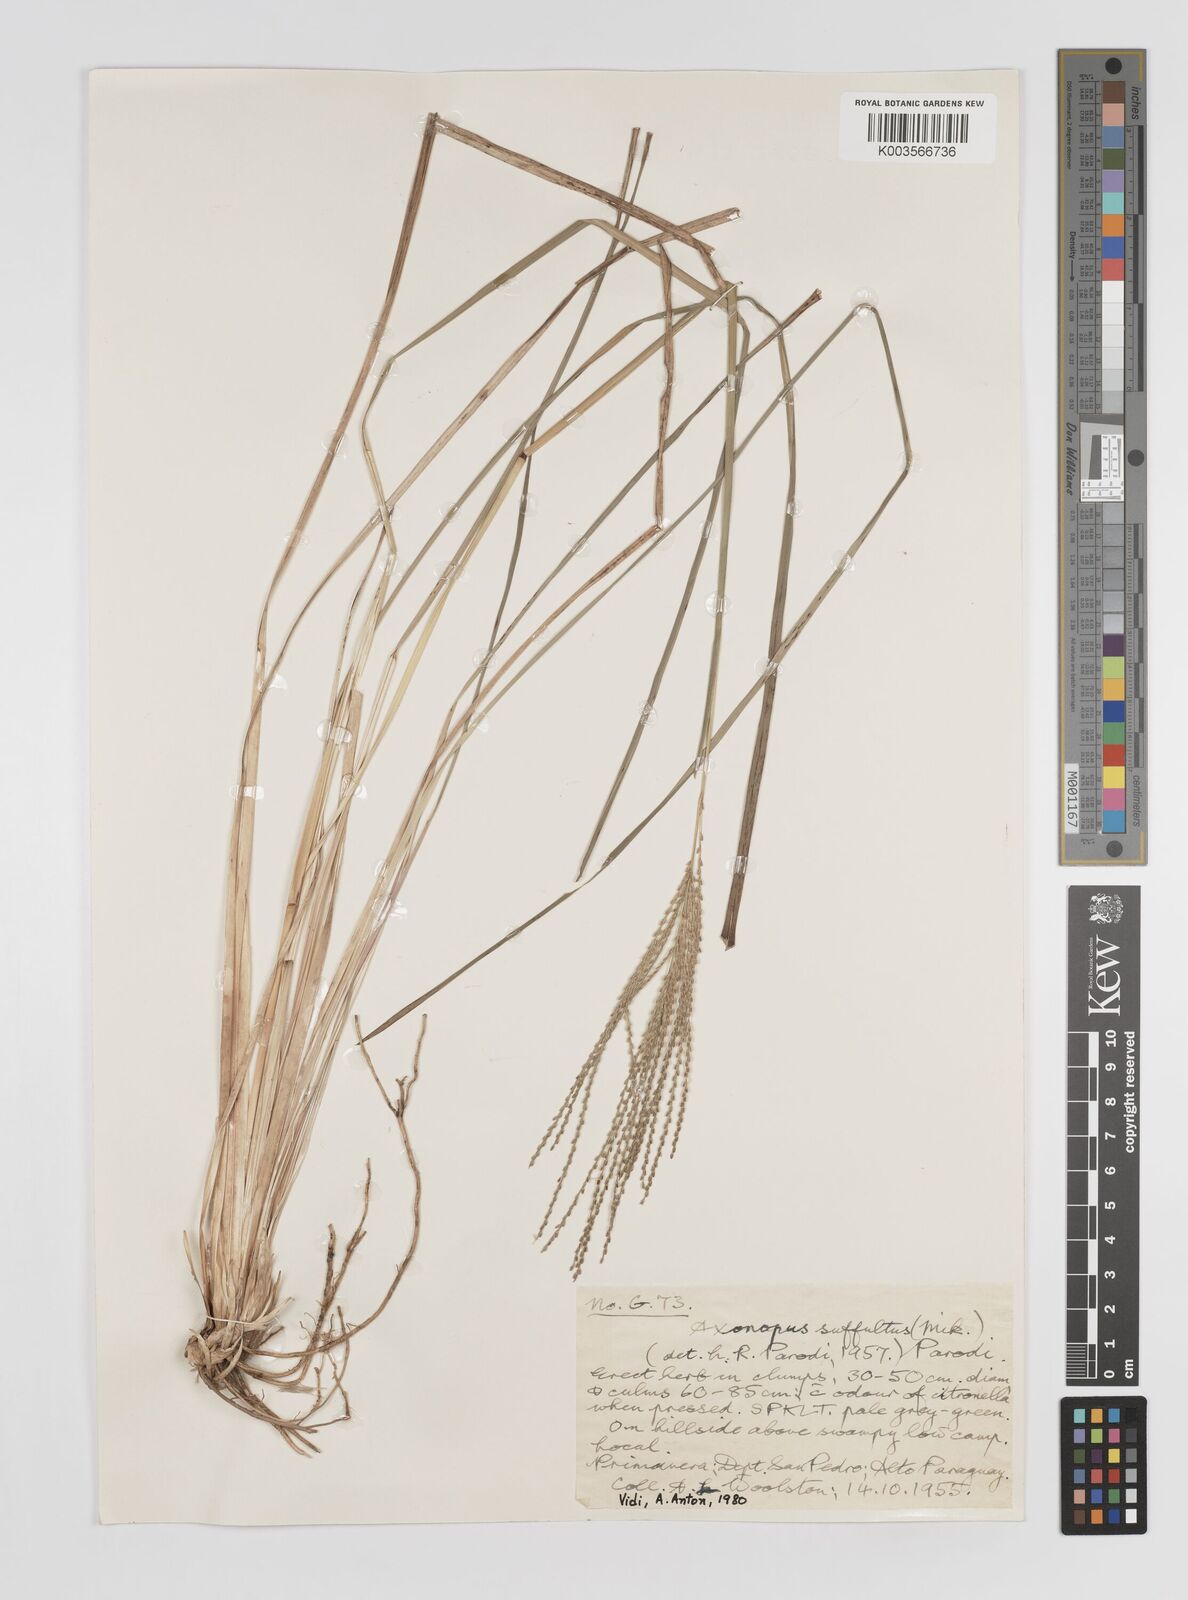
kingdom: Plantae
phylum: Tracheophyta
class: Liliopsida
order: Poales
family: Poaceae
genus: Axonopus
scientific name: Axonopus suffultus
